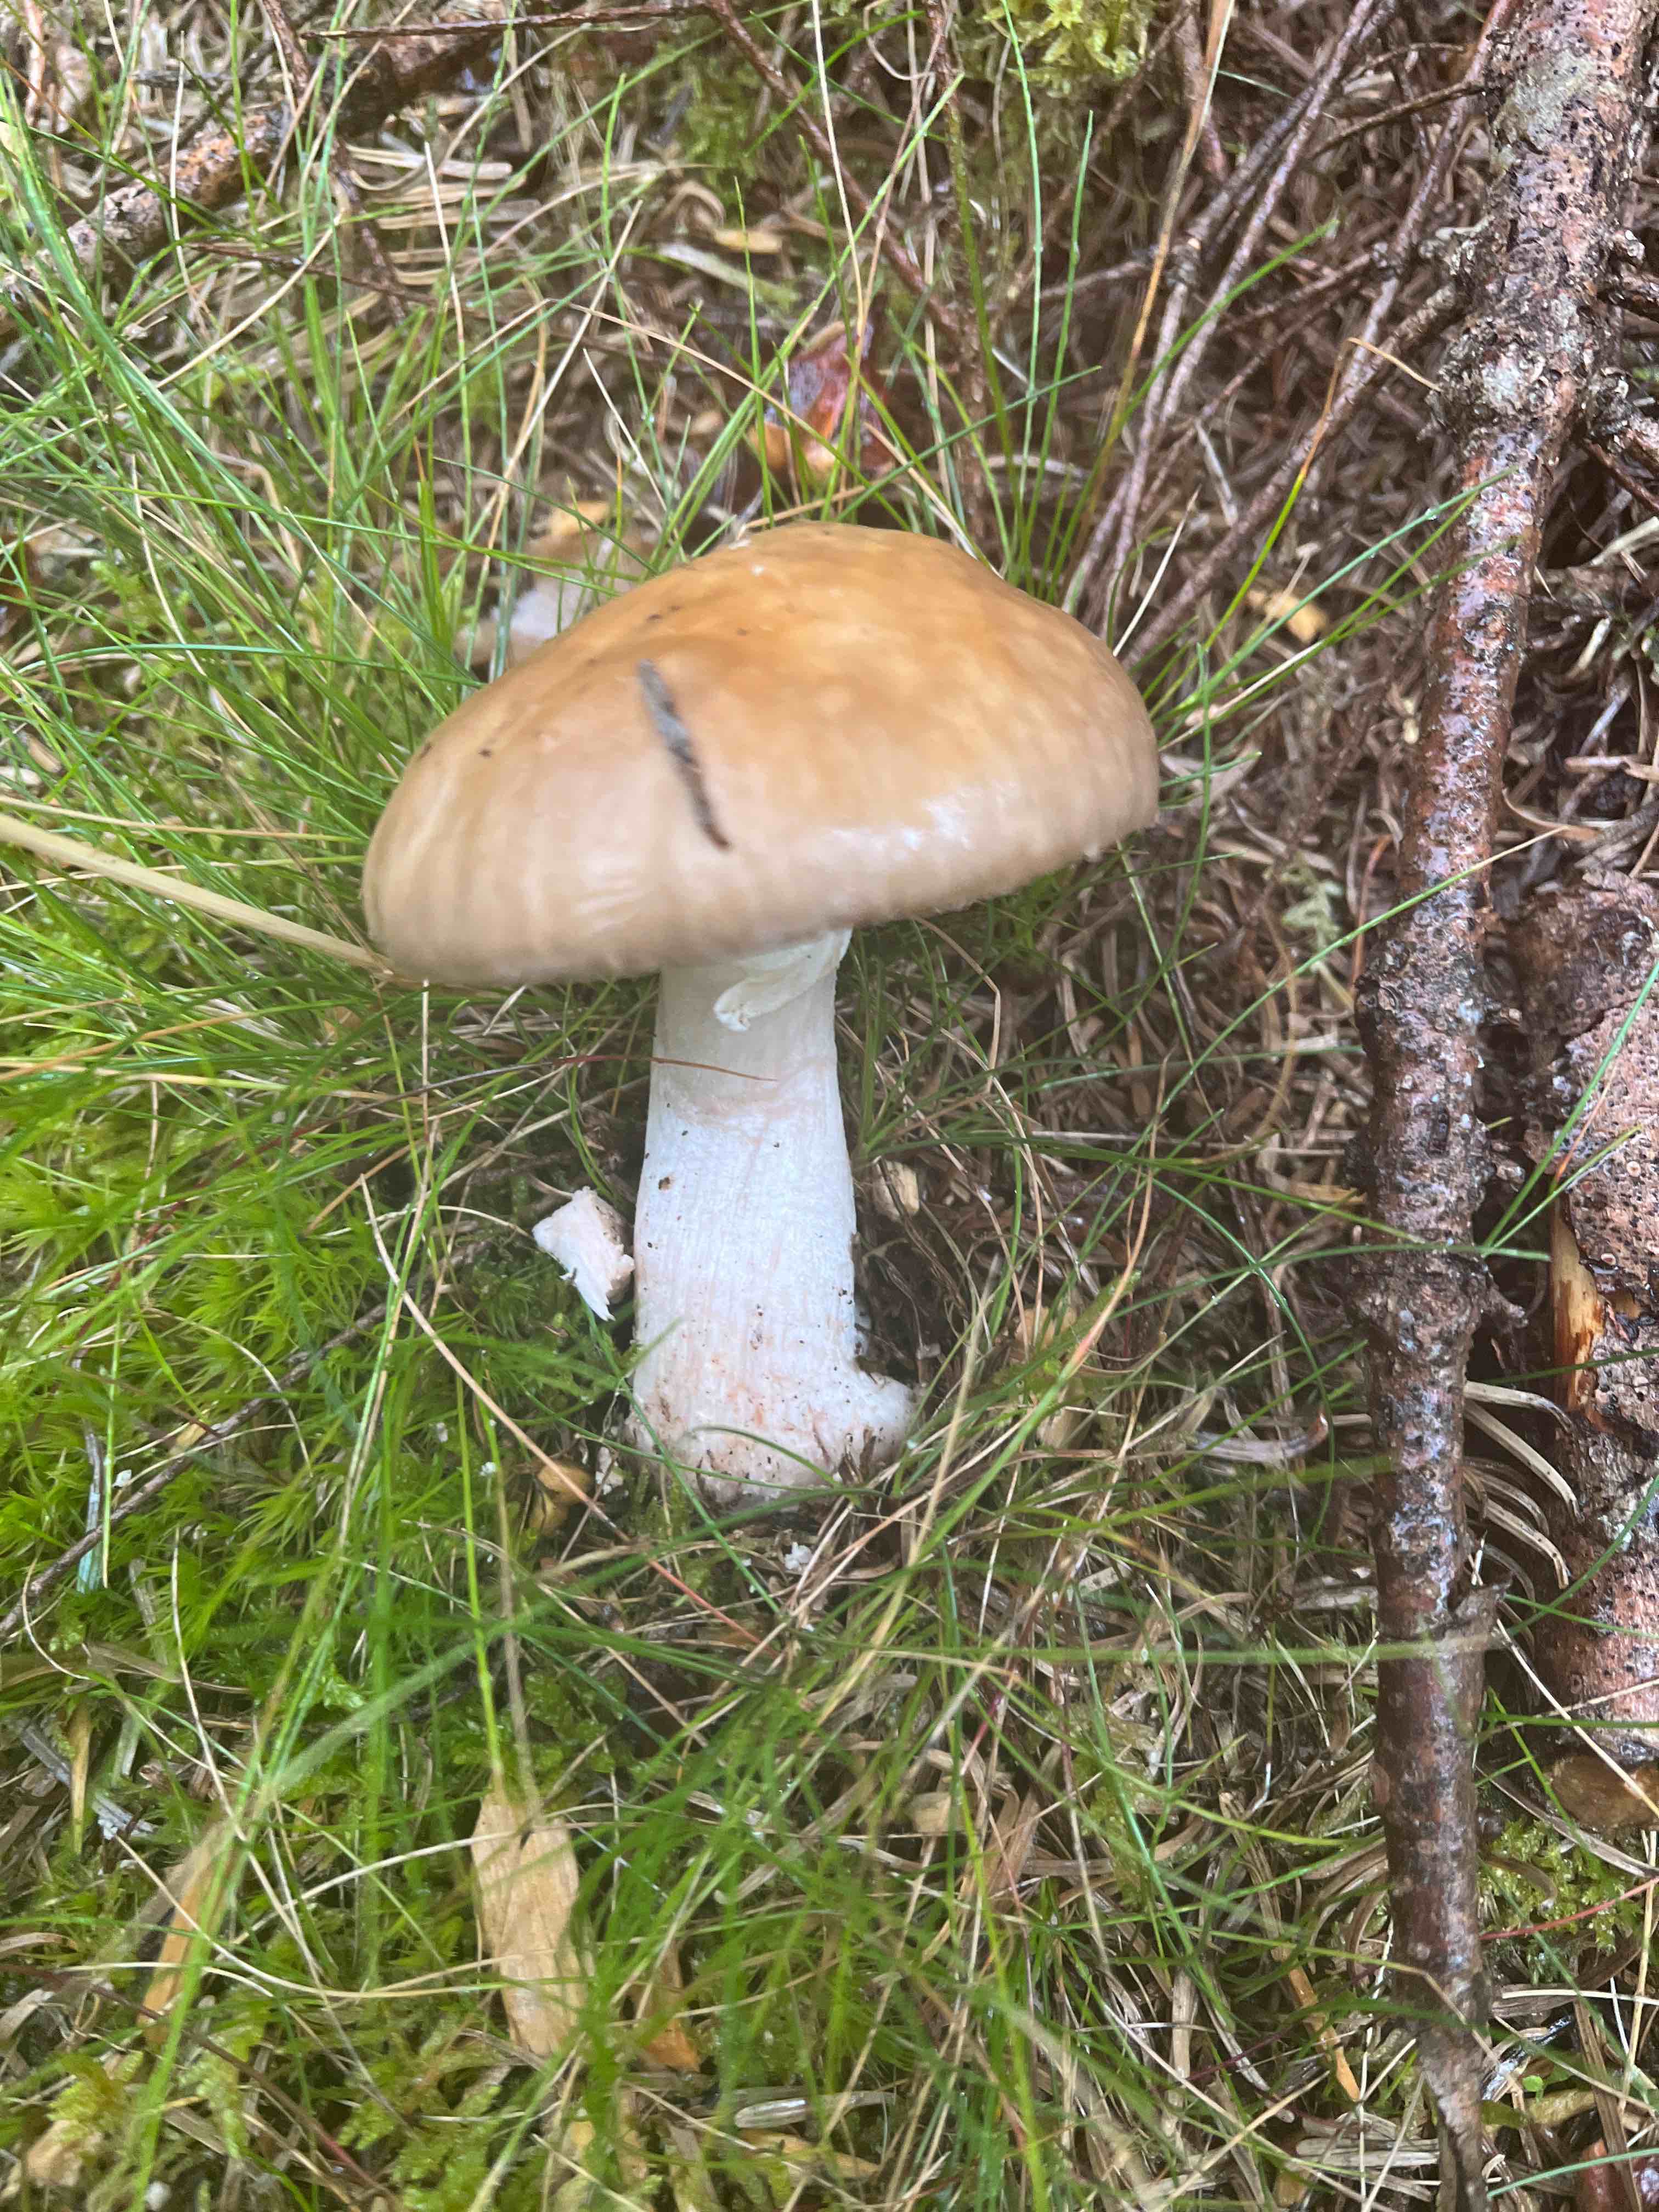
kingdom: Fungi
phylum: Basidiomycota
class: Agaricomycetes
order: Agaricales
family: Amanitaceae
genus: Amanita
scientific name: Amanita rubescens
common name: rødmende fluesvamp
